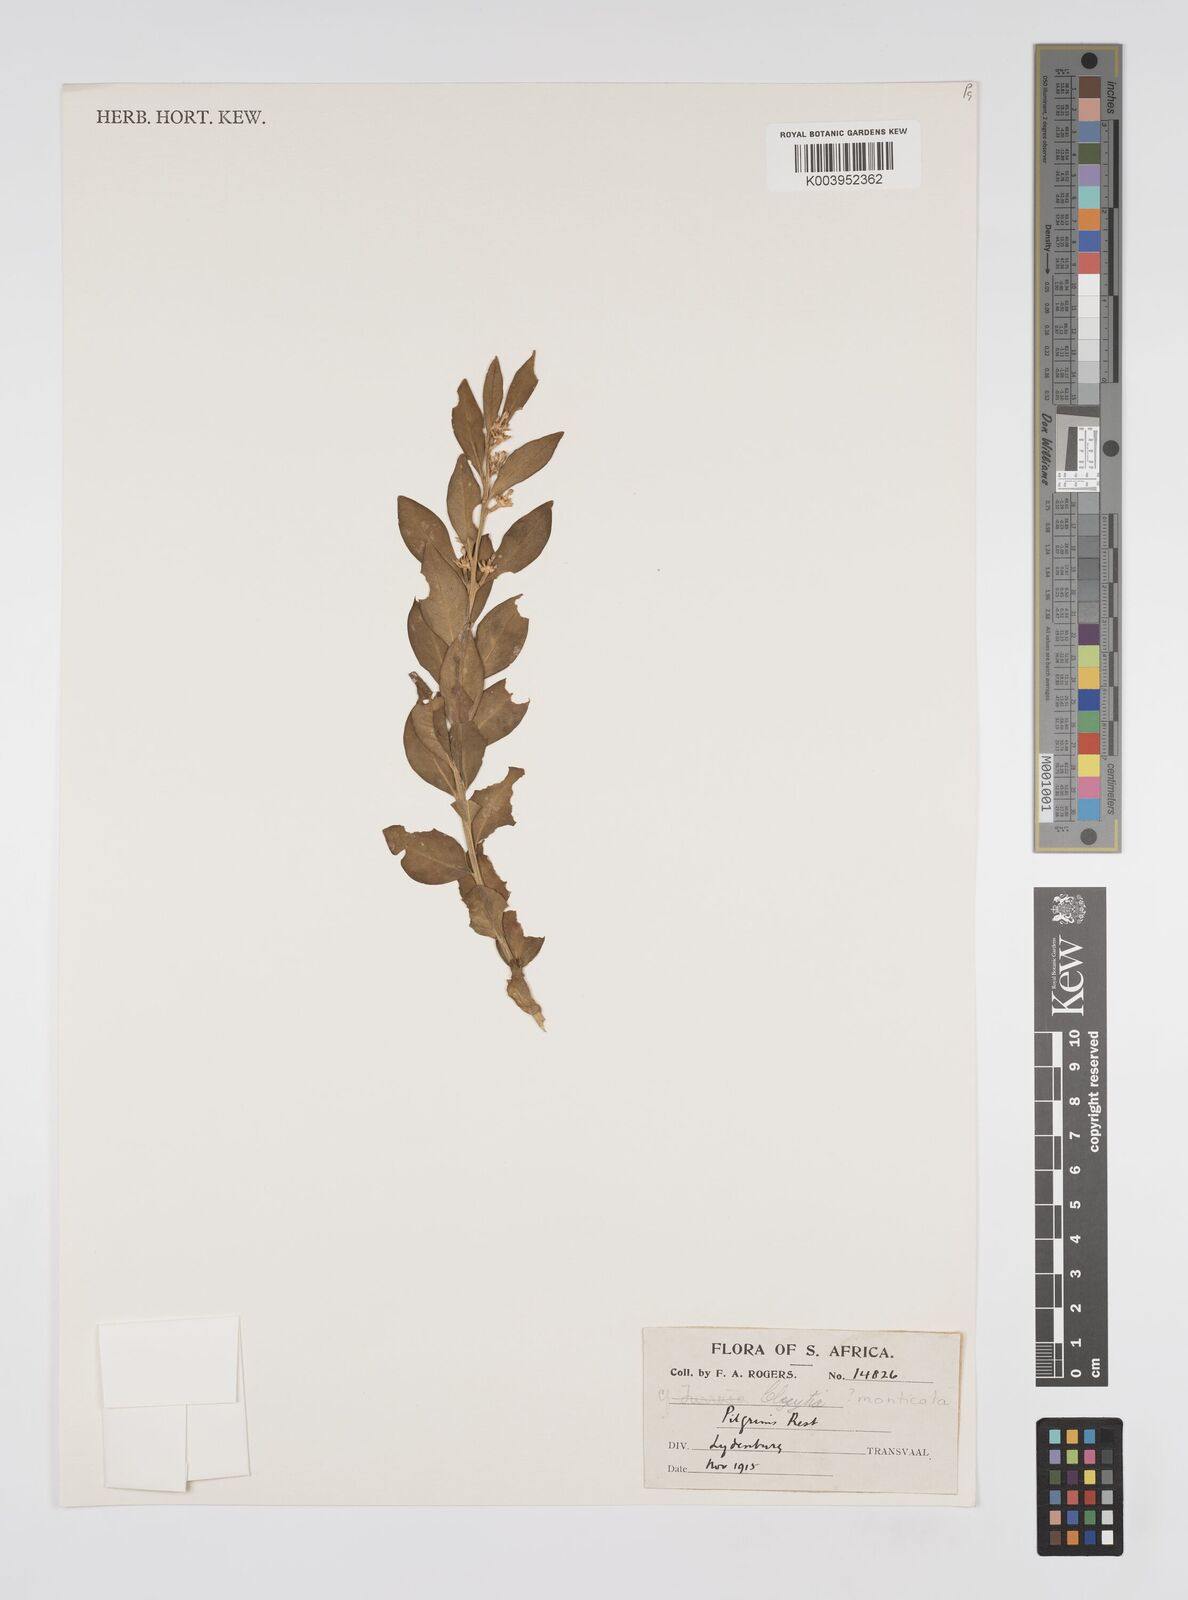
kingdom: Plantae
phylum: Tracheophyta
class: Magnoliopsida
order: Malpighiales
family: Peraceae
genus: Clutia
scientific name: Clutia monticola
